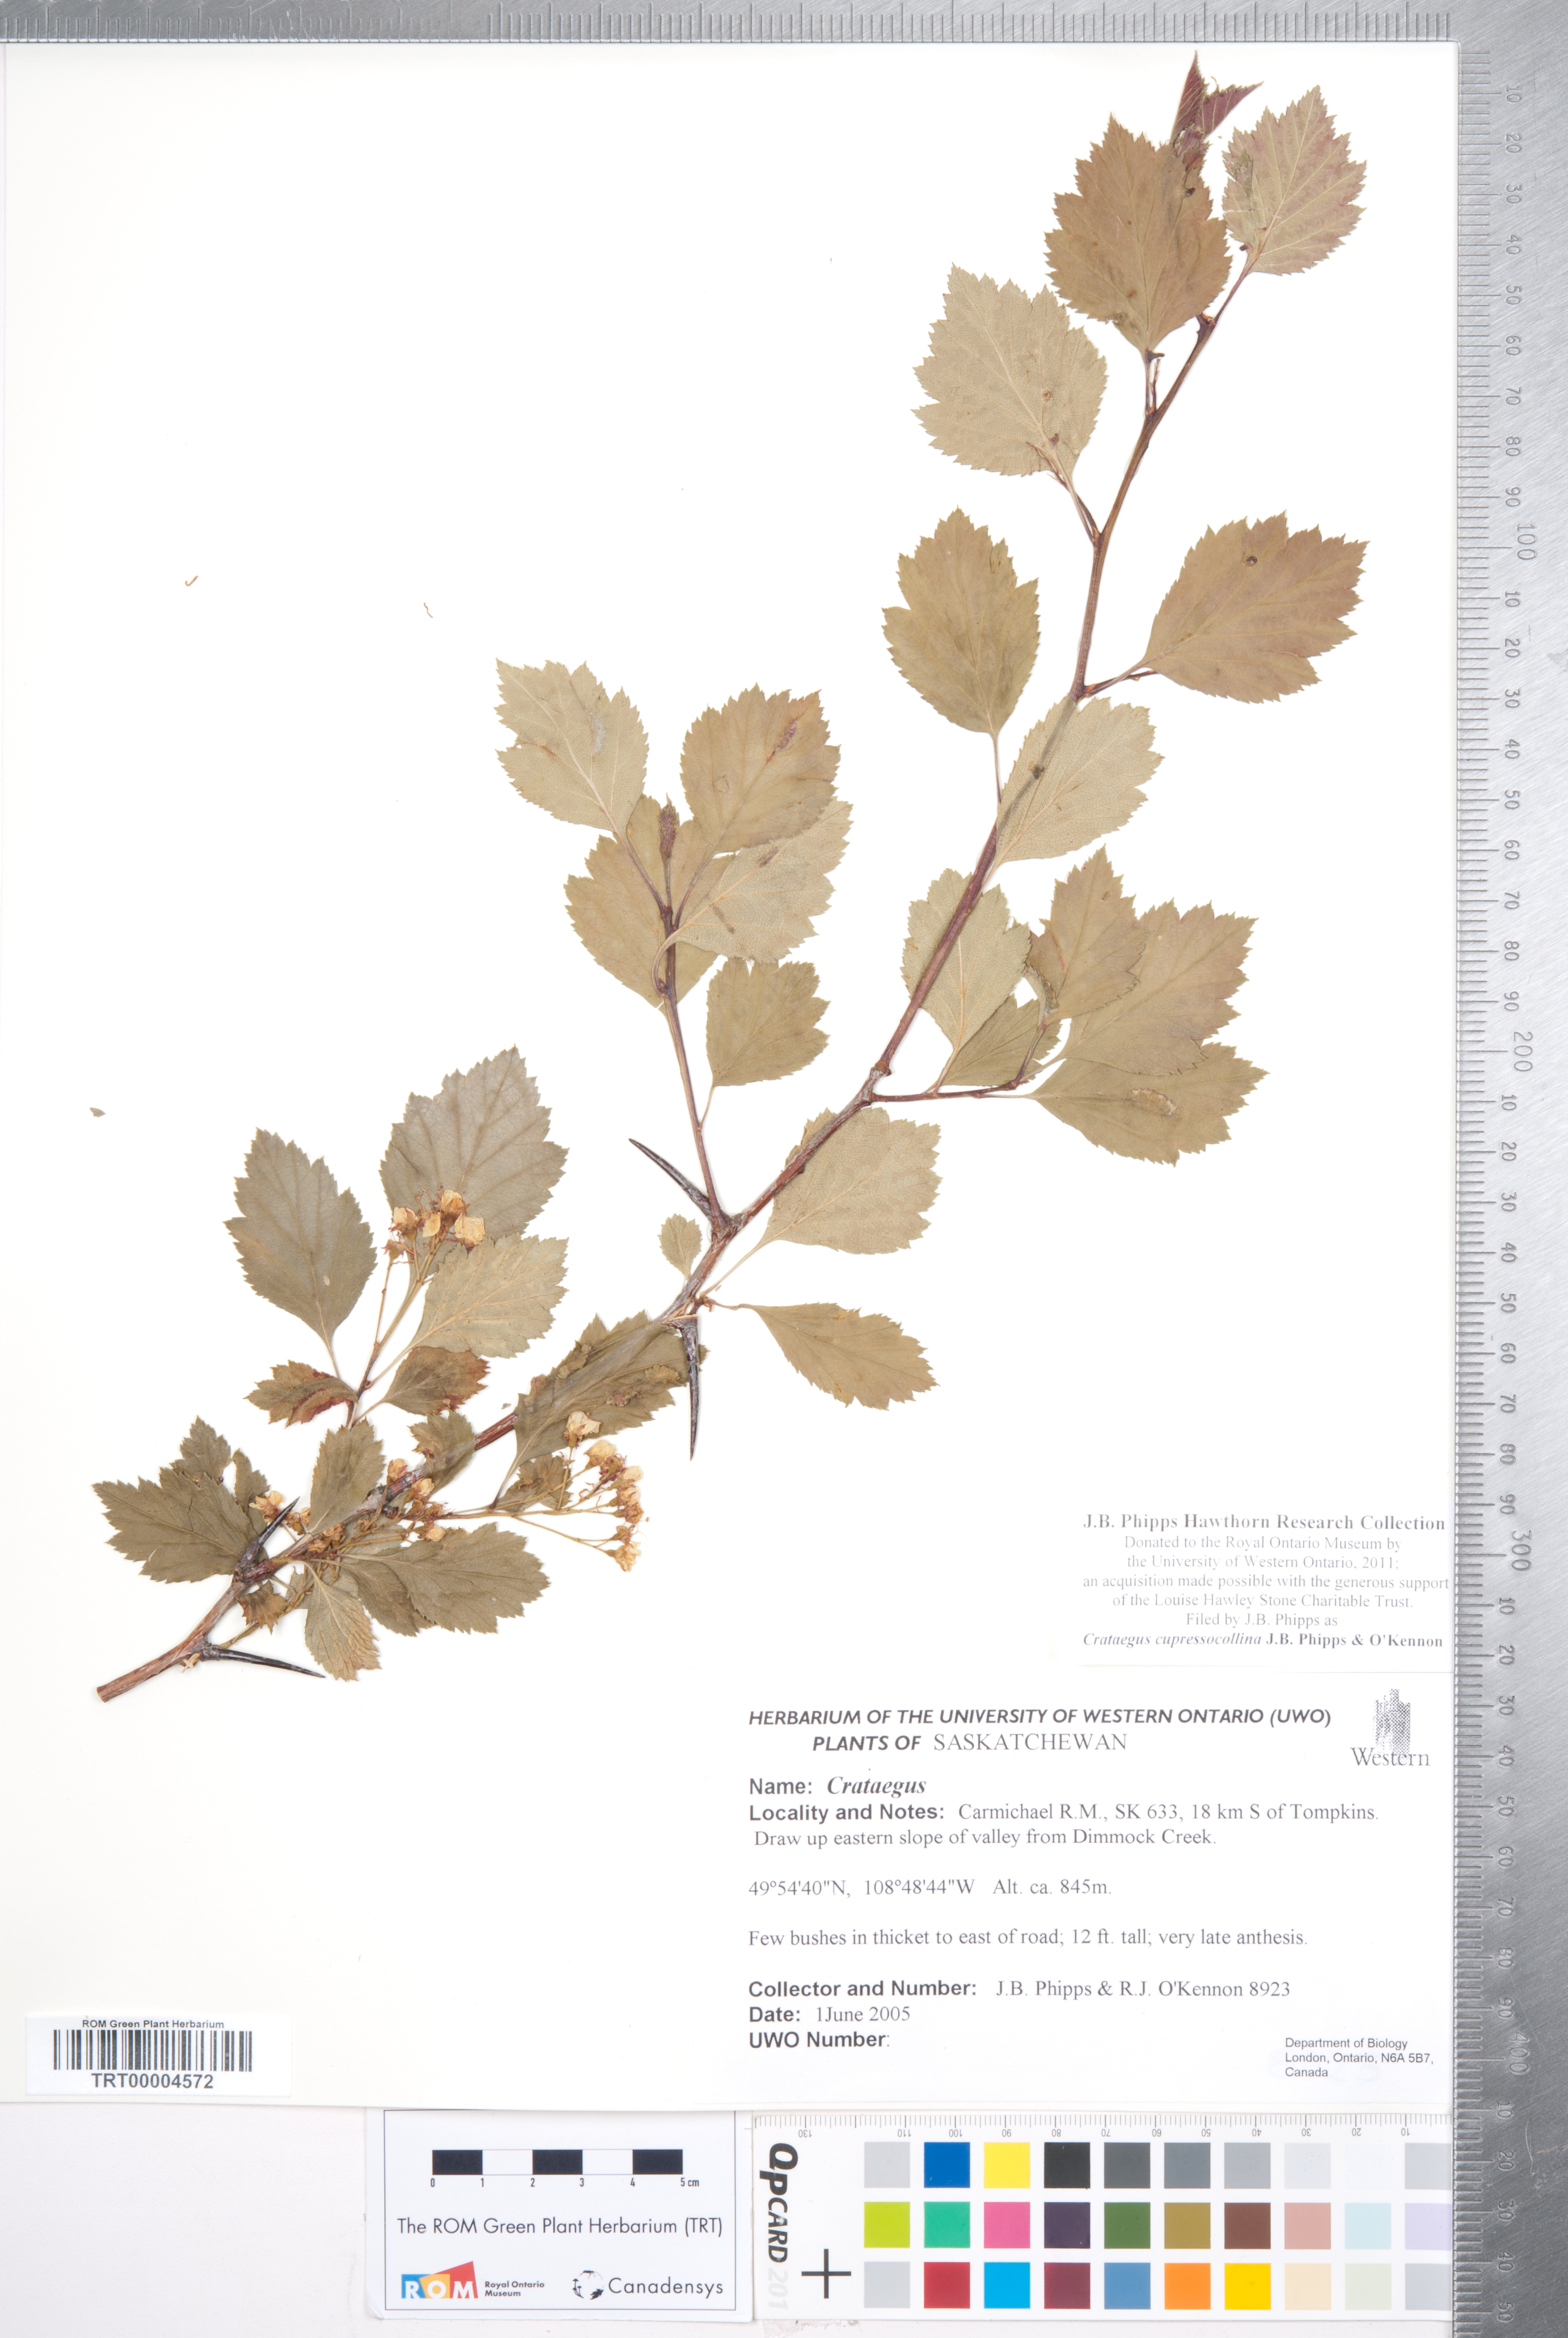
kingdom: Plantae
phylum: Tracheophyta
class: Magnoliopsida
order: Rosales
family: Rosaceae
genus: Crataegus
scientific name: Crataegus cupressocollina
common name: Cypress hills hawthorn
